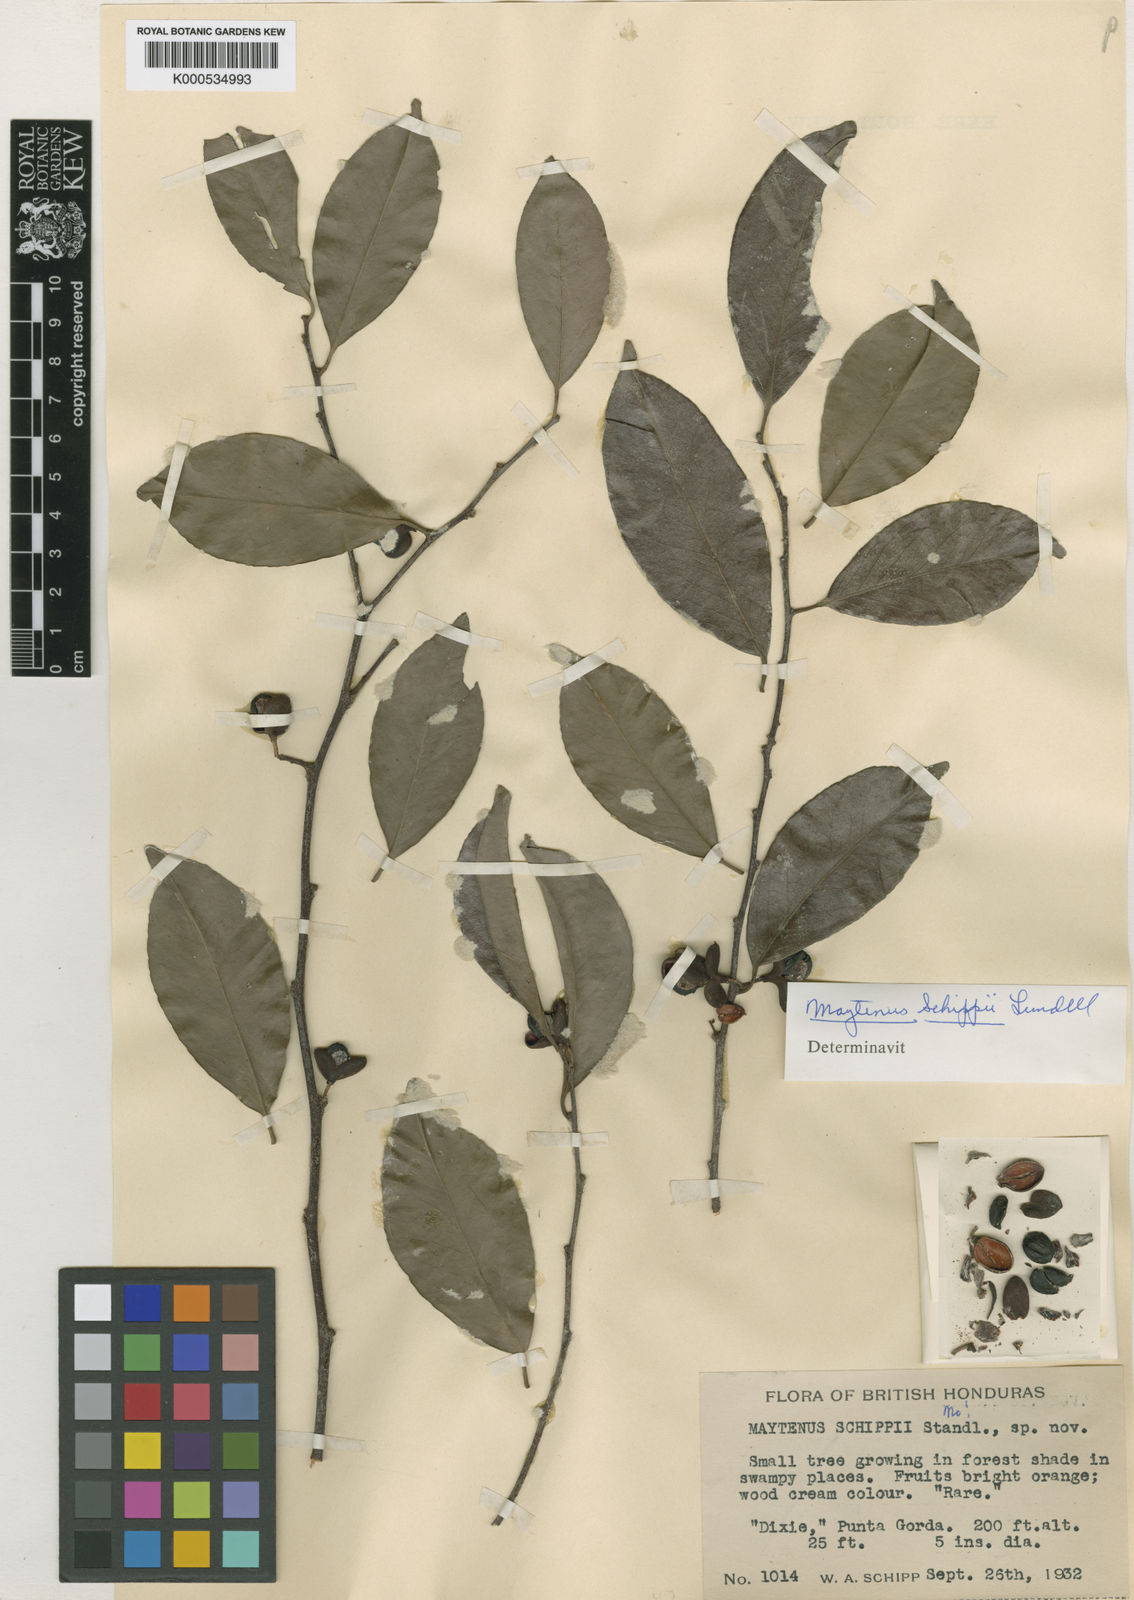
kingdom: Plantae
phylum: Tracheophyta
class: Magnoliopsida
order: Celastrales
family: Celastraceae
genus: Monteverdia
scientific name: Monteverdia schippii
